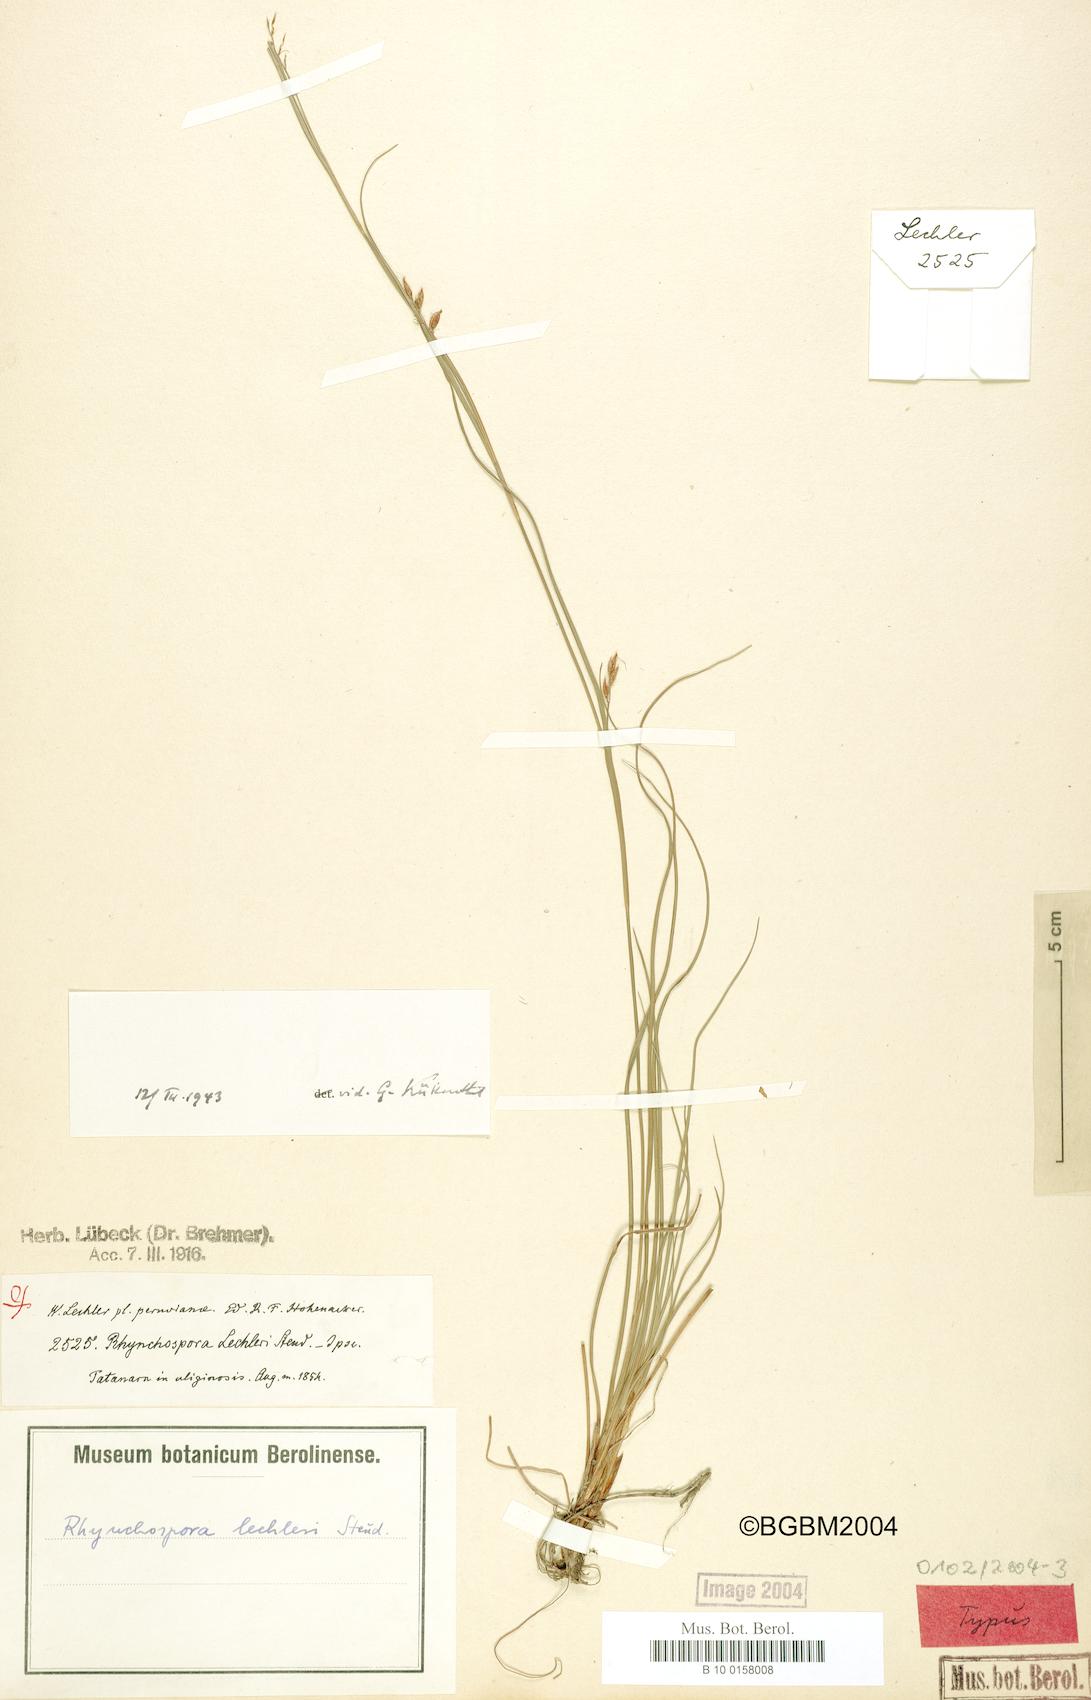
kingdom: Plantae
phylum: Tracheophyta
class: Liliopsida
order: Poales
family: Cyperaceae
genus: Rhynchospora
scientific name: Rhynchospora vulcani
